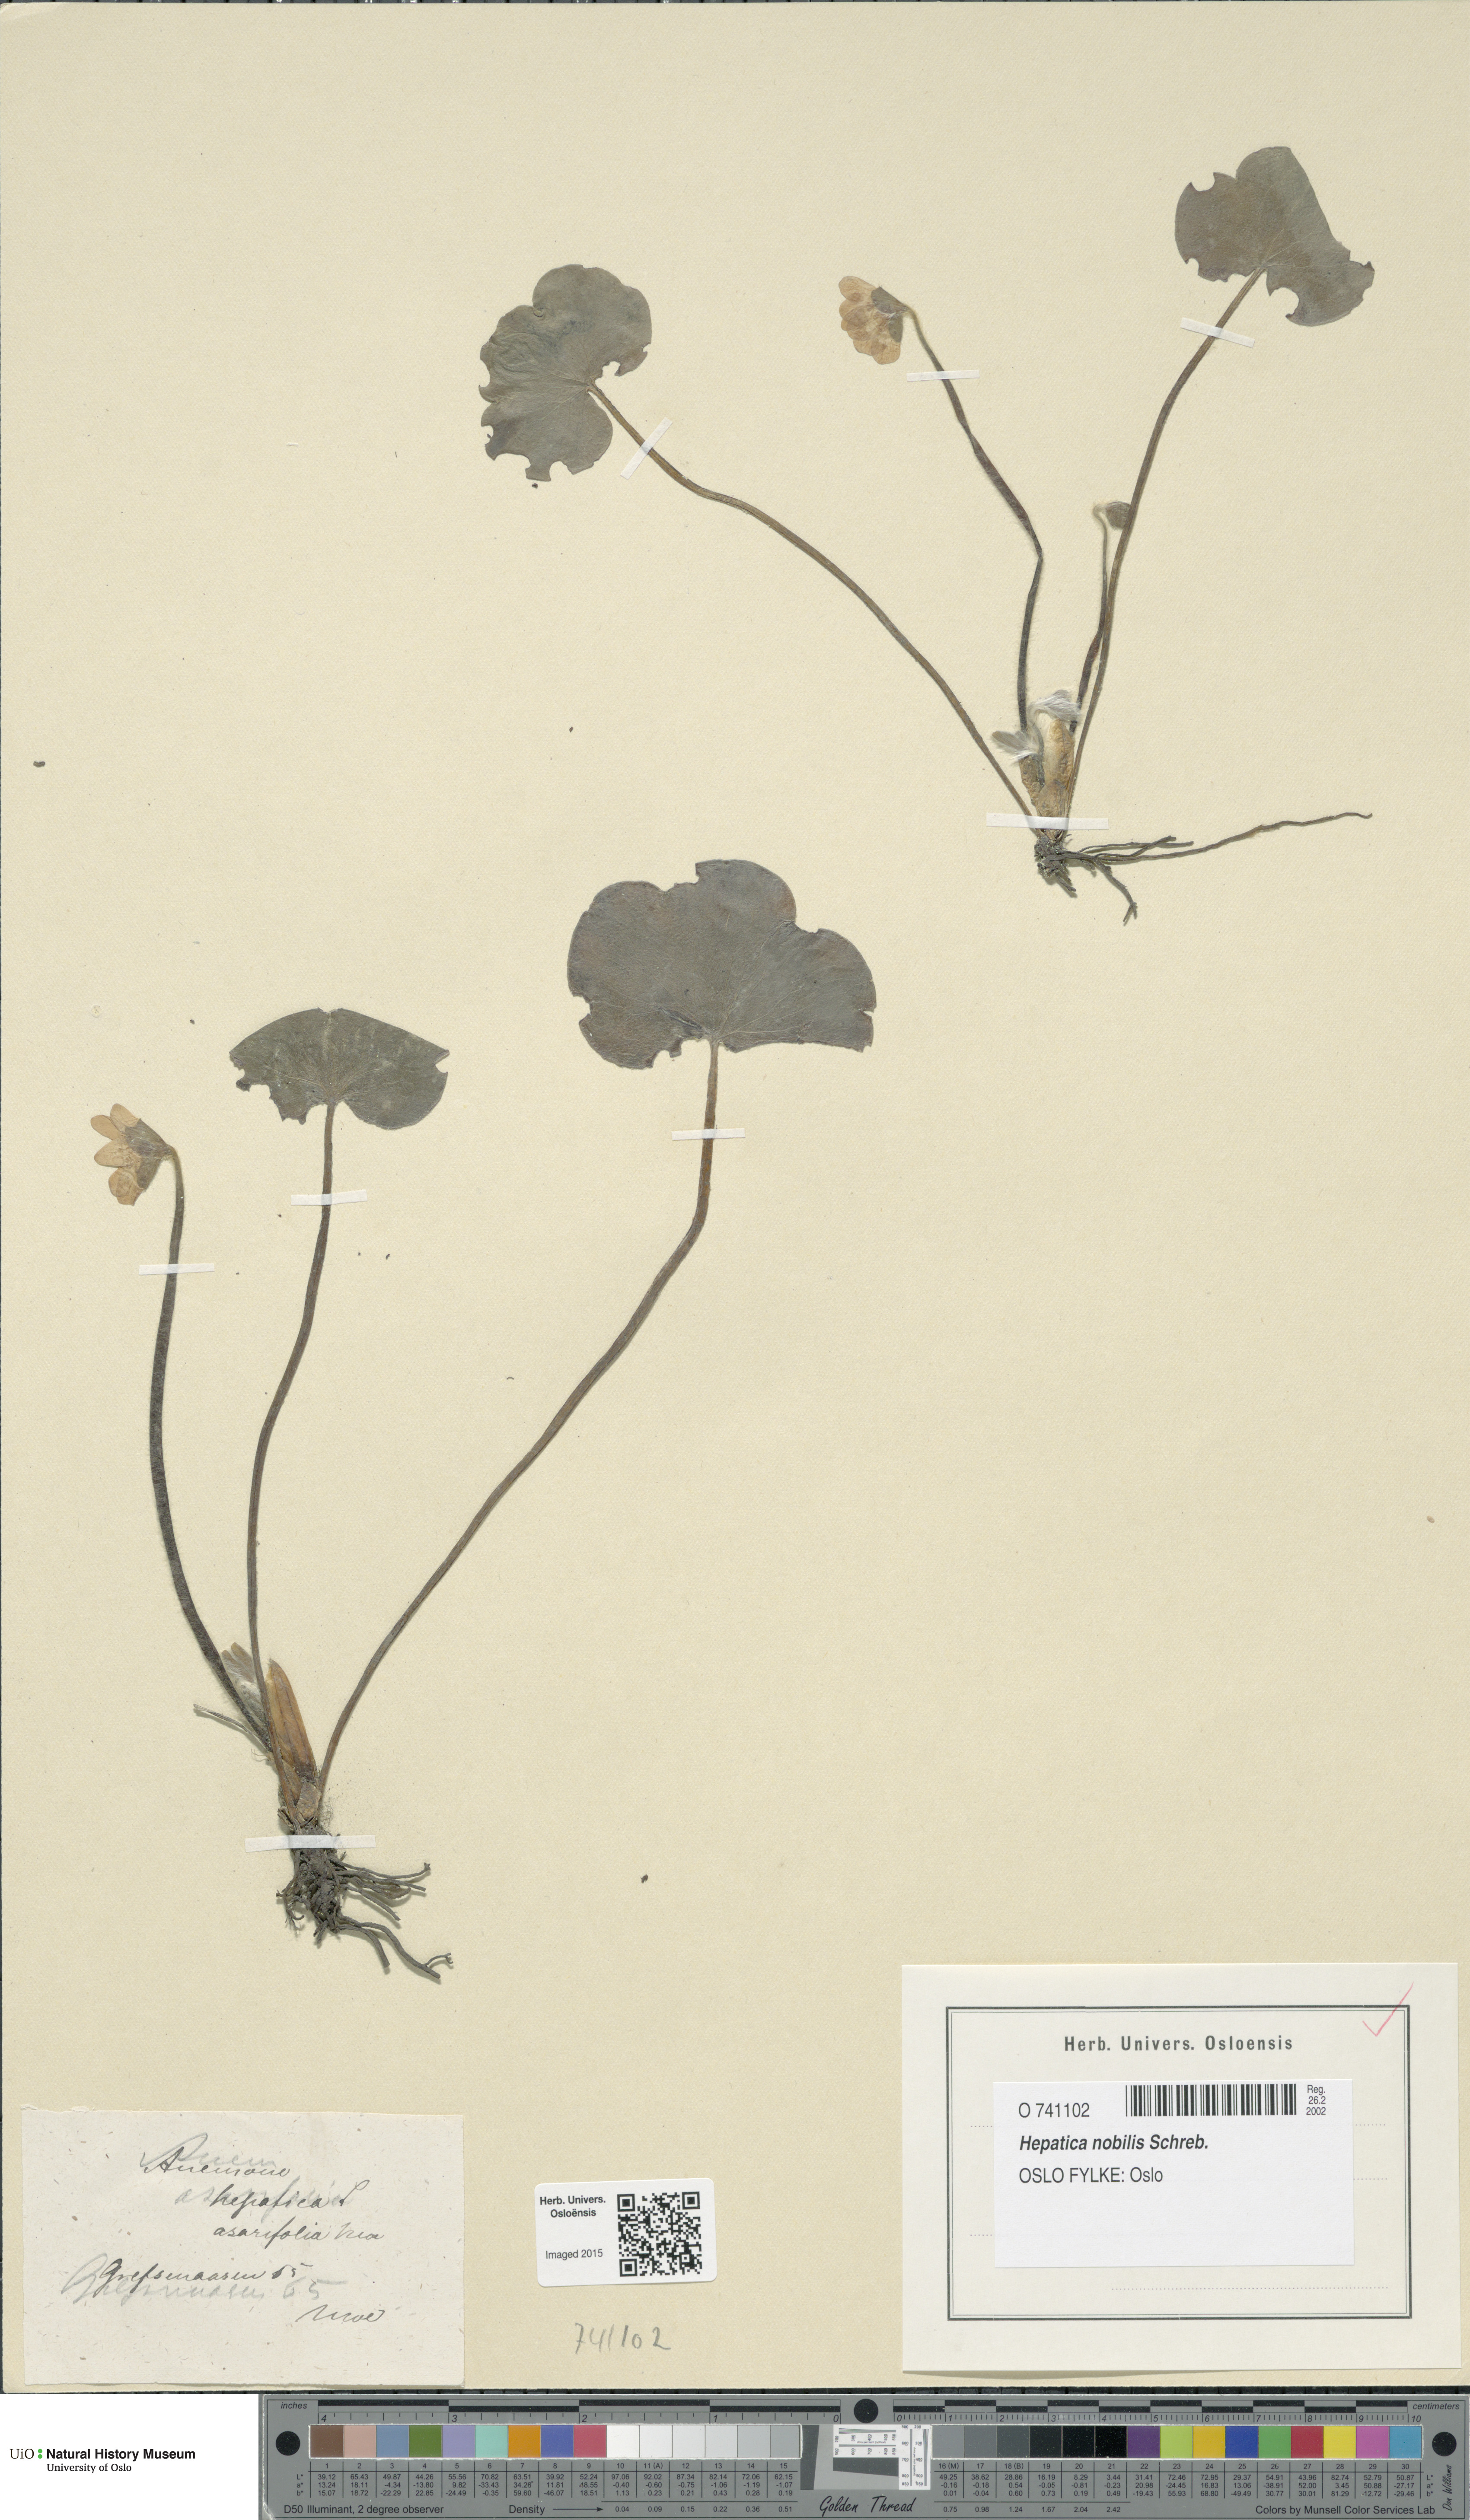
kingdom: Plantae
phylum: Tracheophyta
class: Magnoliopsida
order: Ranunculales
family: Ranunculaceae
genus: Hepatica
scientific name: Hepatica nobilis
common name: Liverleaf
